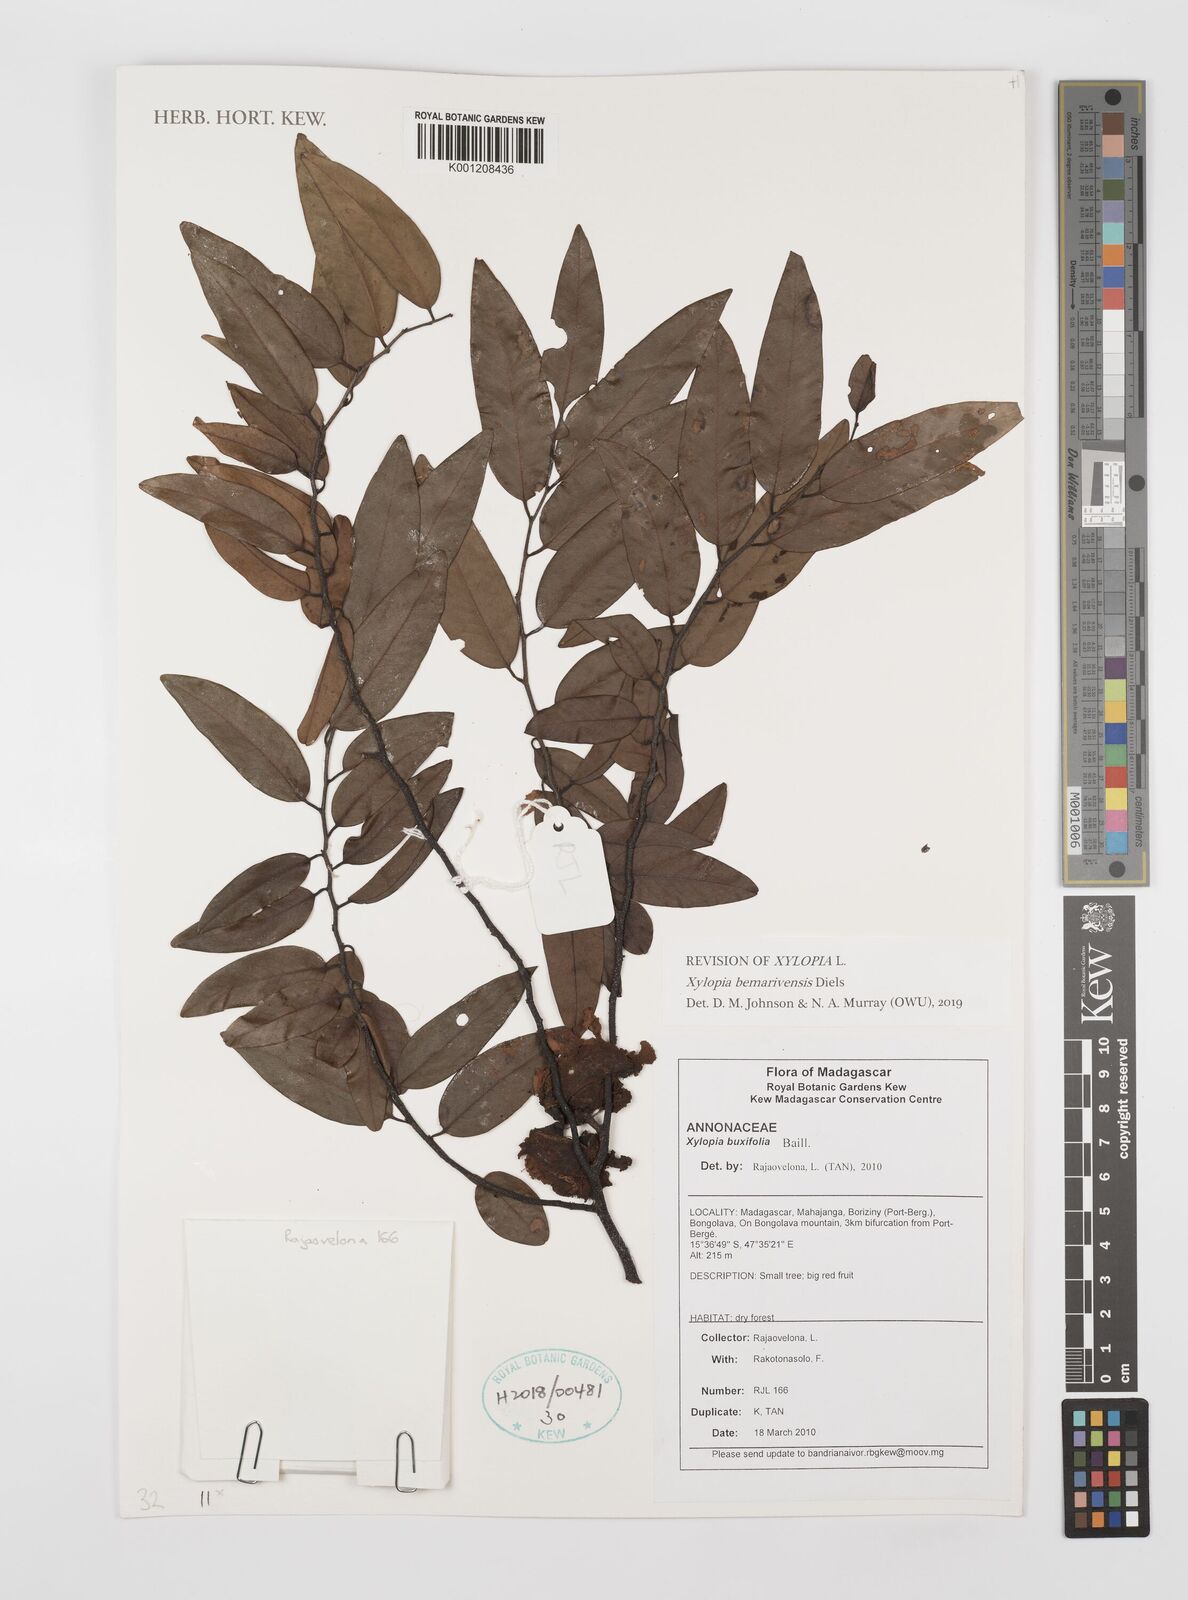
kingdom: Plantae
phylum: Tracheophyta
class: Magnoliopsida
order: Magnoliales
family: Annonaceae
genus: Xylopia
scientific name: Xylopia buxifolia
